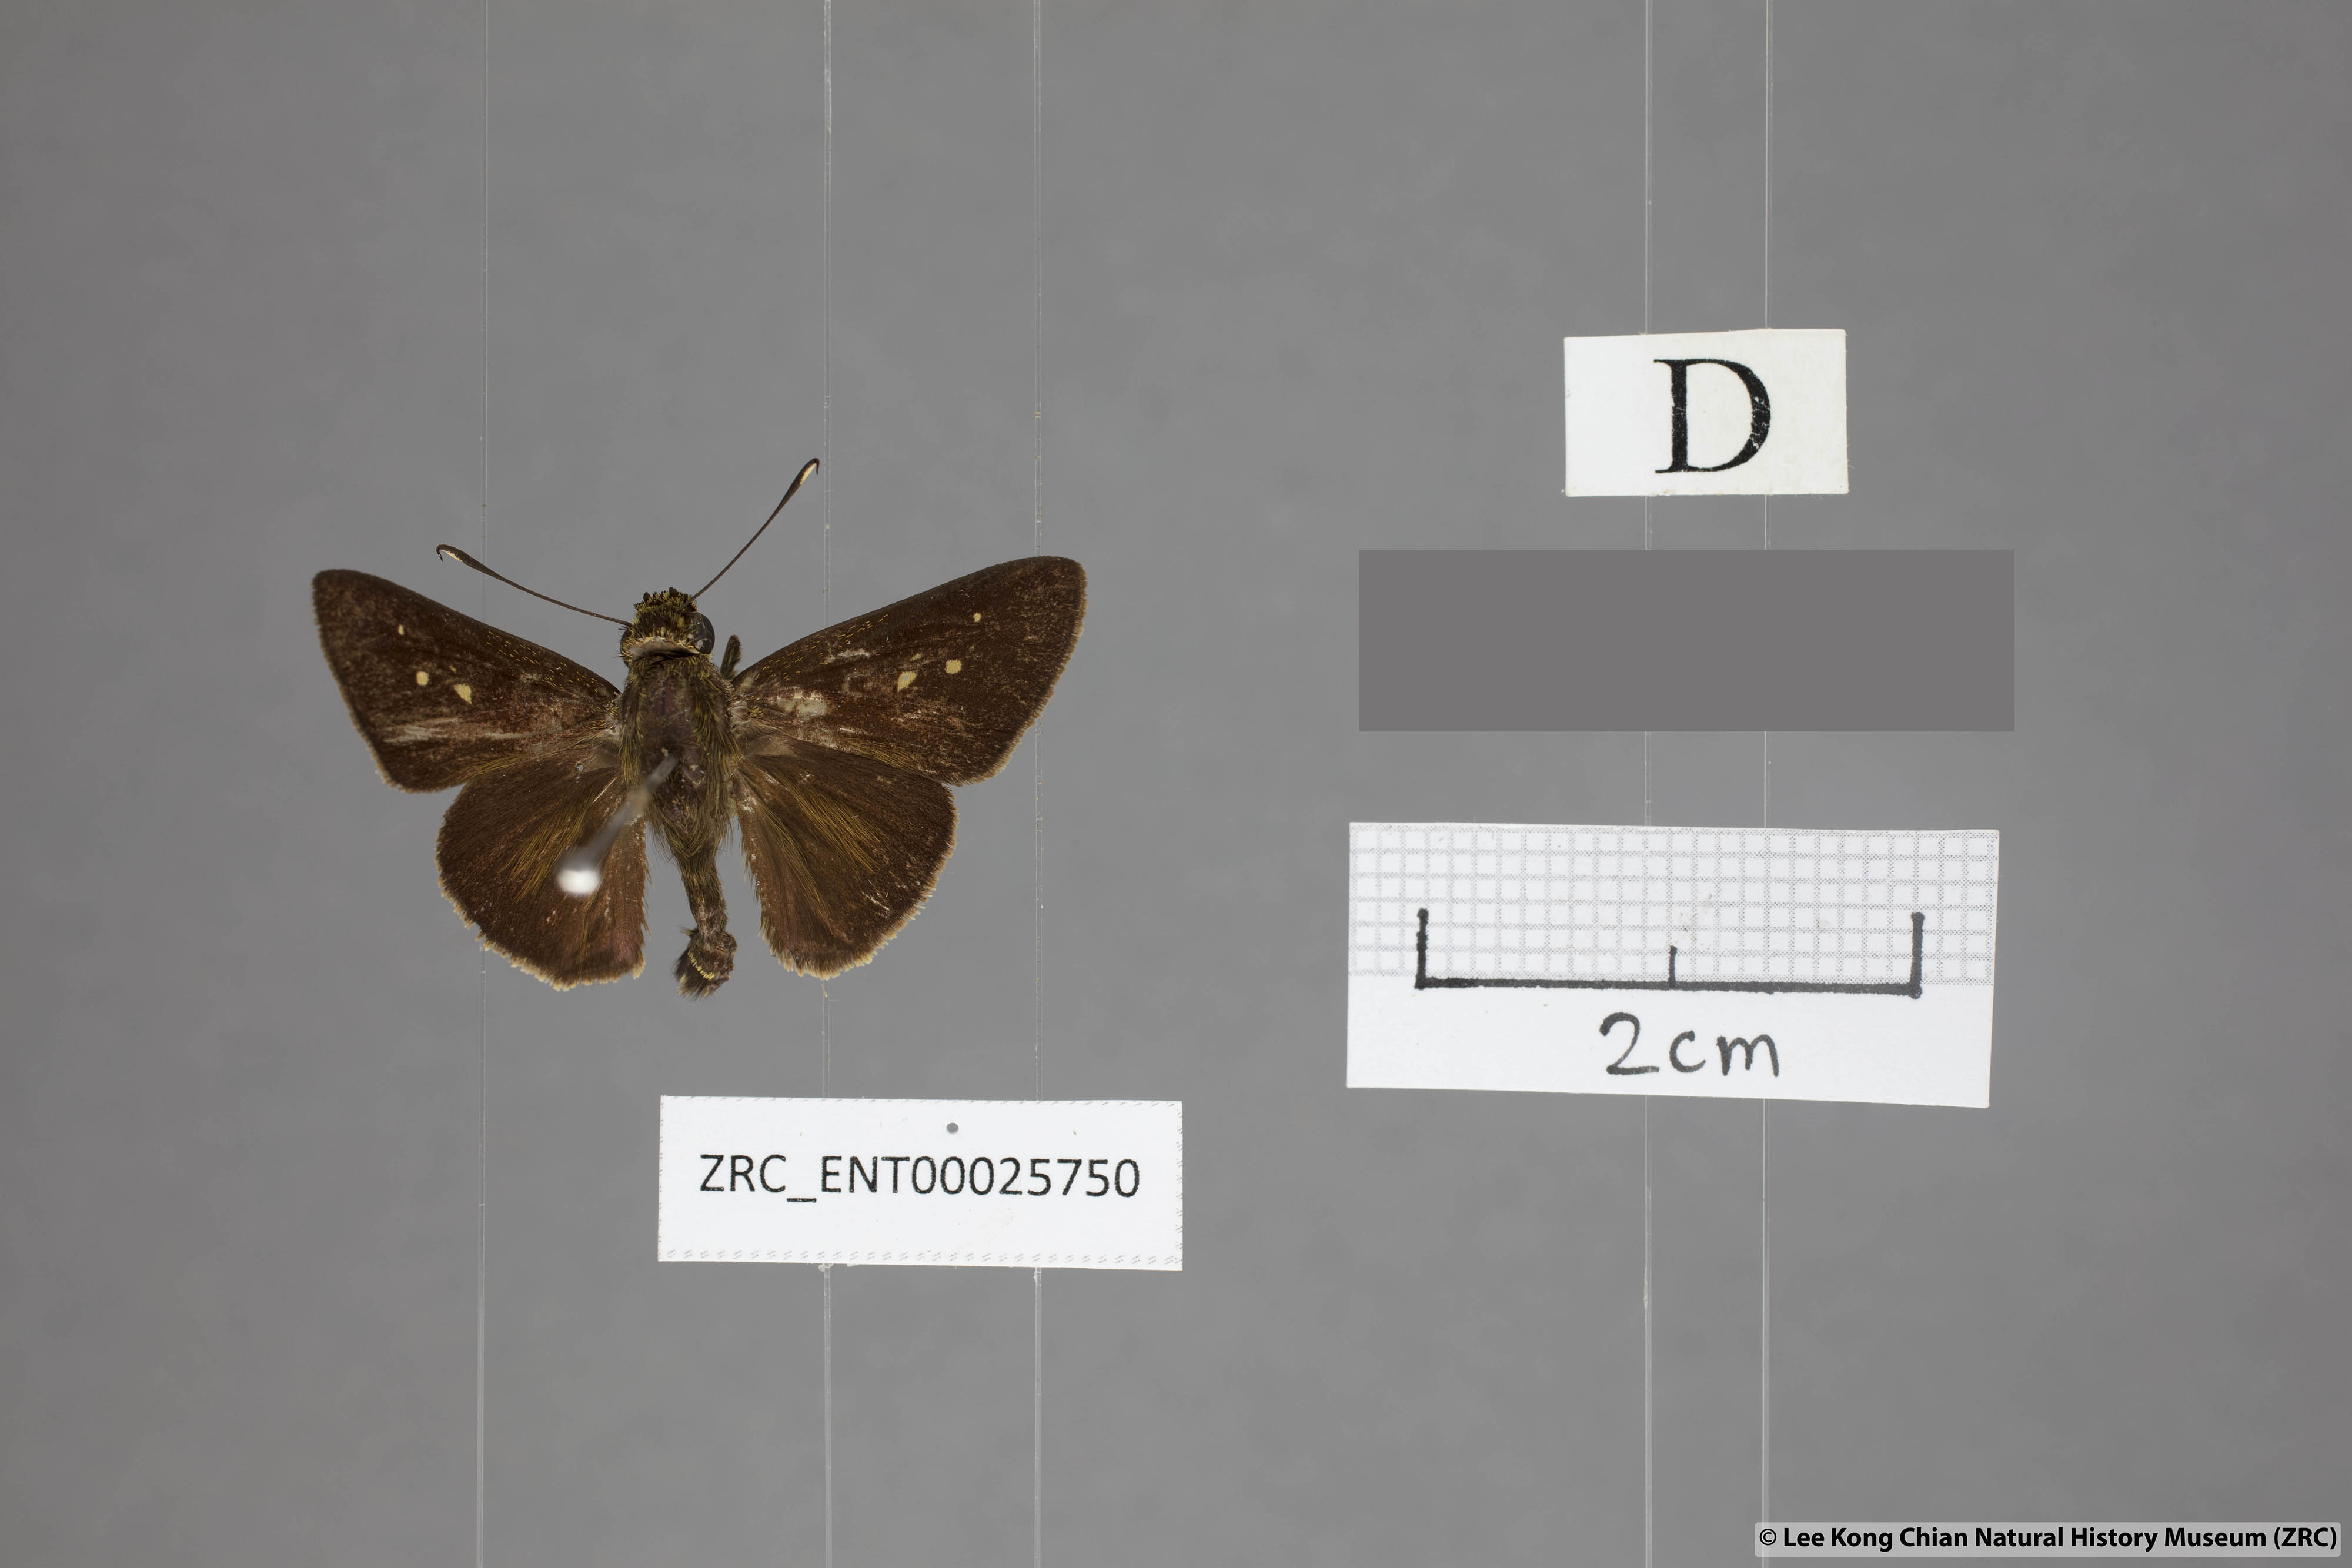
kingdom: Animalia
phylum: Arthropoda
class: Insecta
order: Lepidoptera
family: Hesperiidae
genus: Zographetus
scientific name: Zographetus rama
